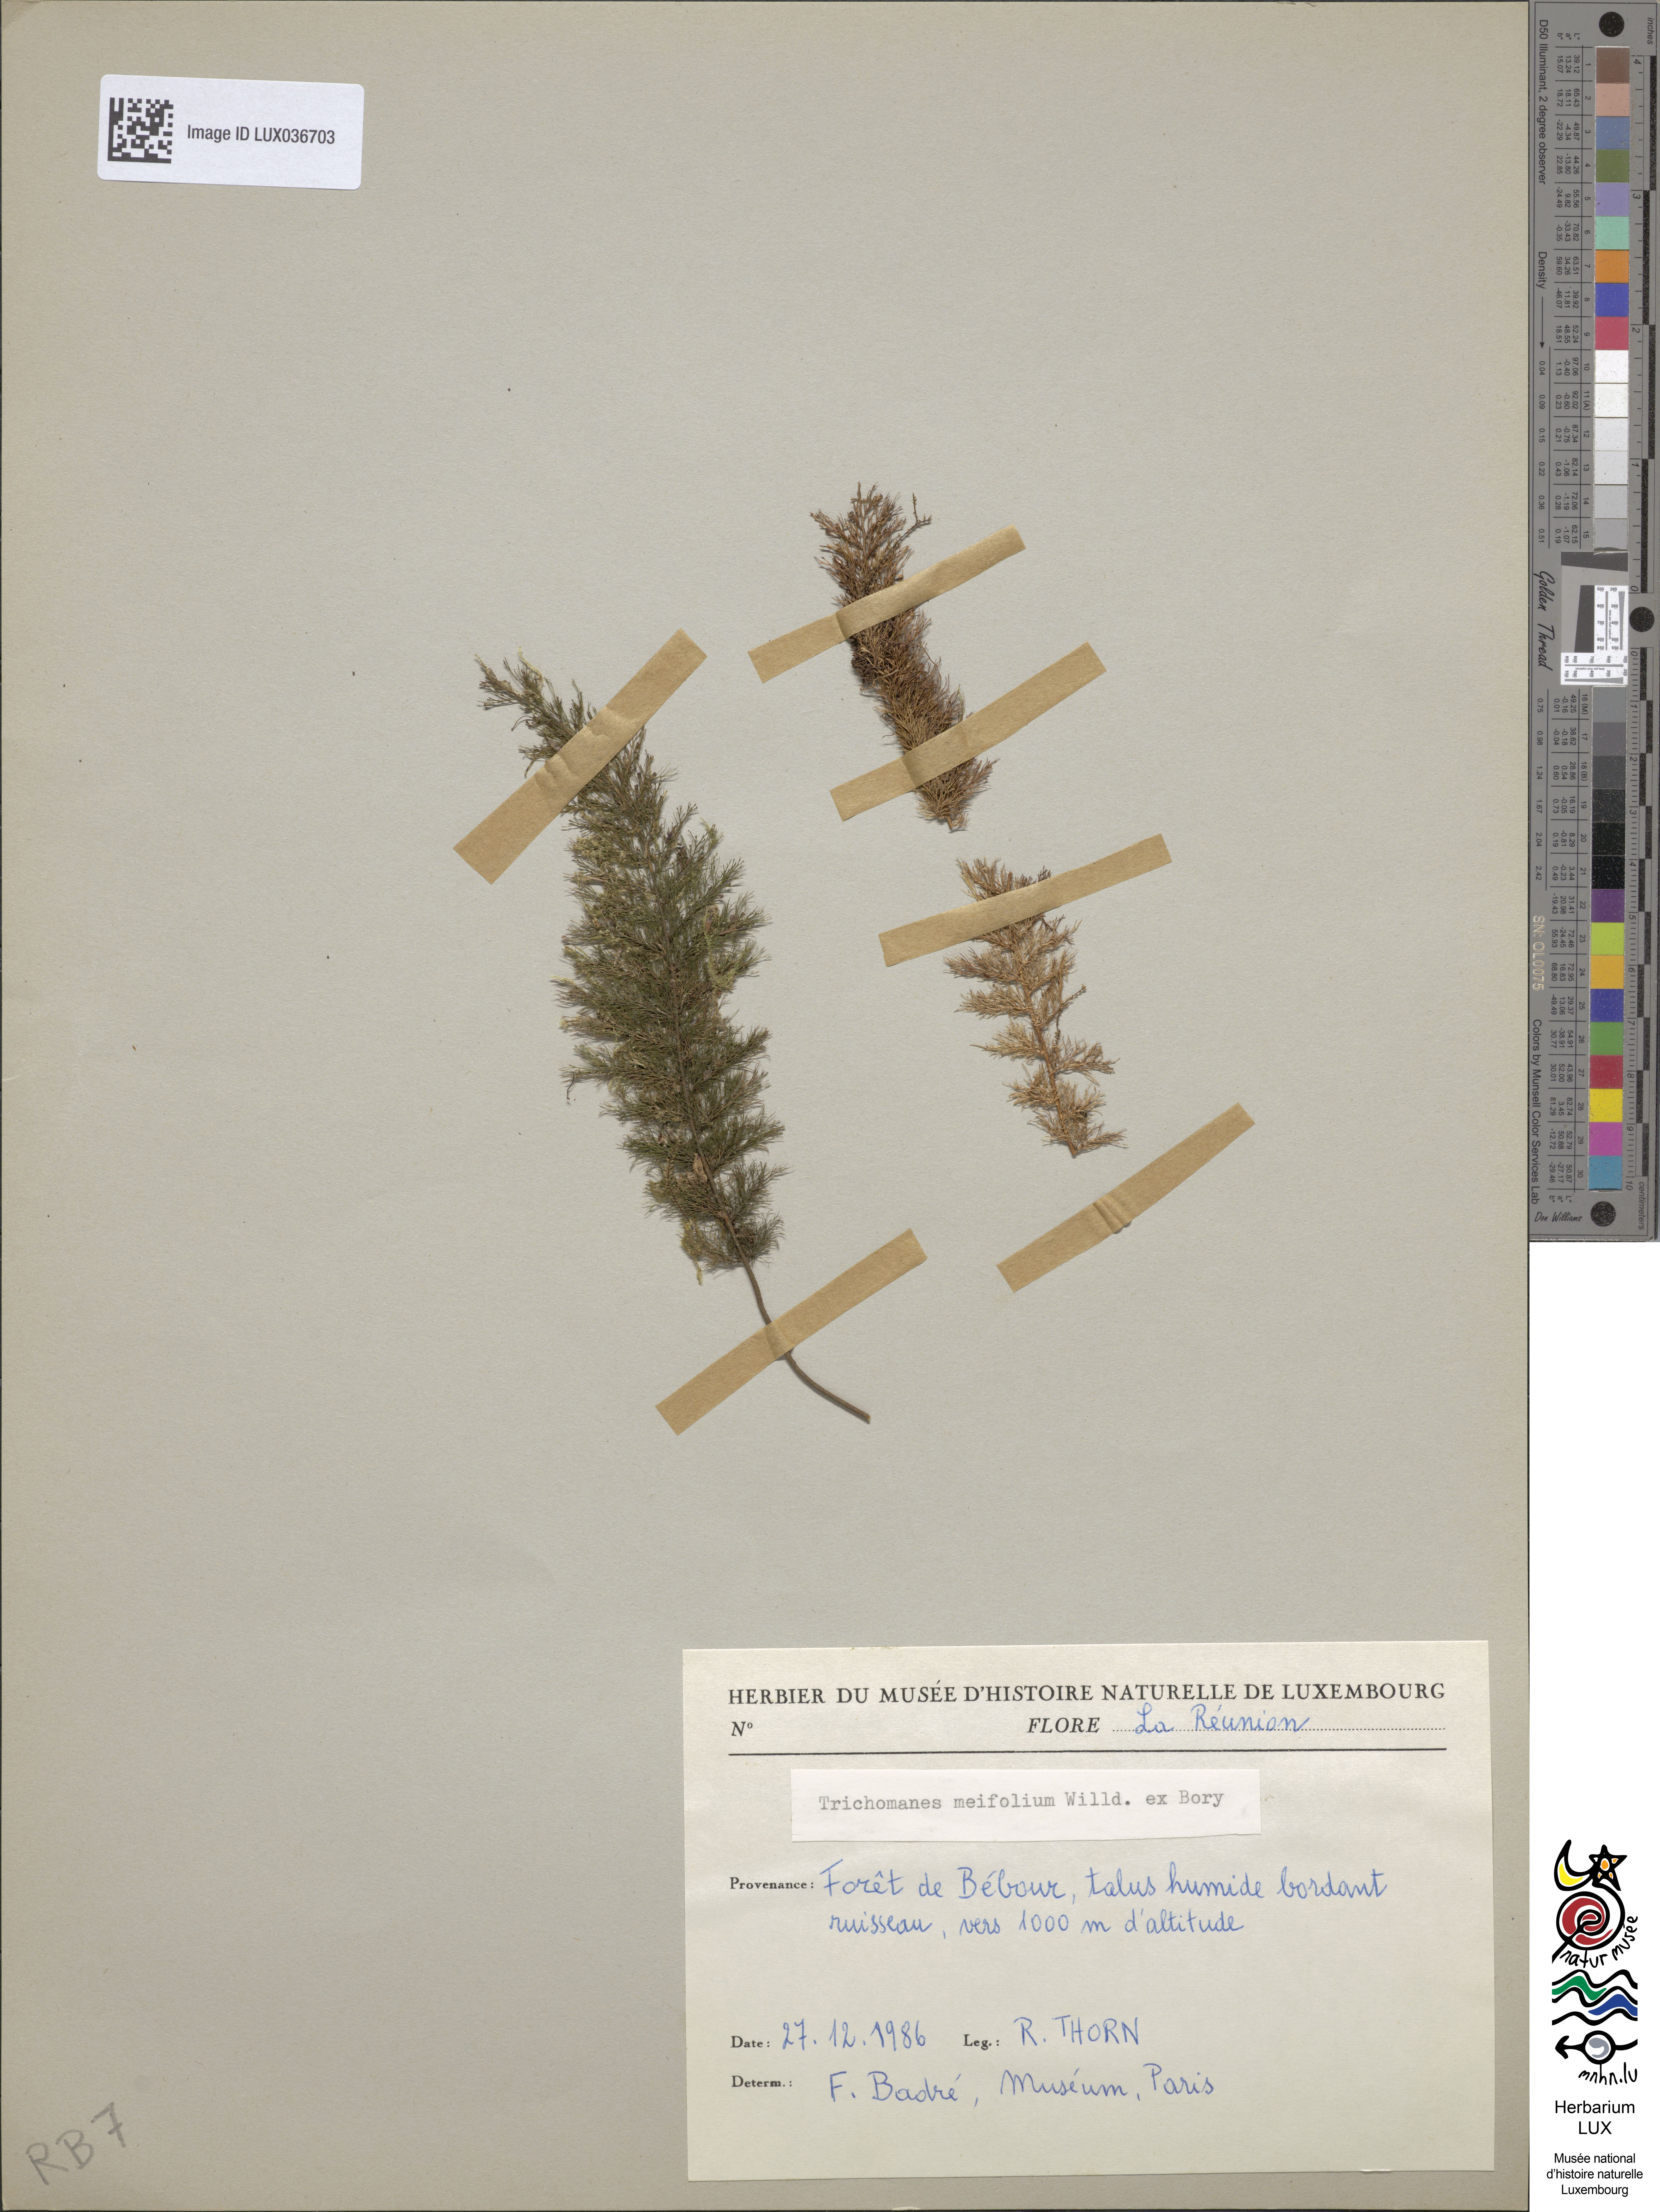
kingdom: Plantae
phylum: Tracheophyta
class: Polypodiopsida
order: Hymenophyllales
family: Hymenophyllaceae
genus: Abrodictyum
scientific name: Abrodictyum parviflorum
